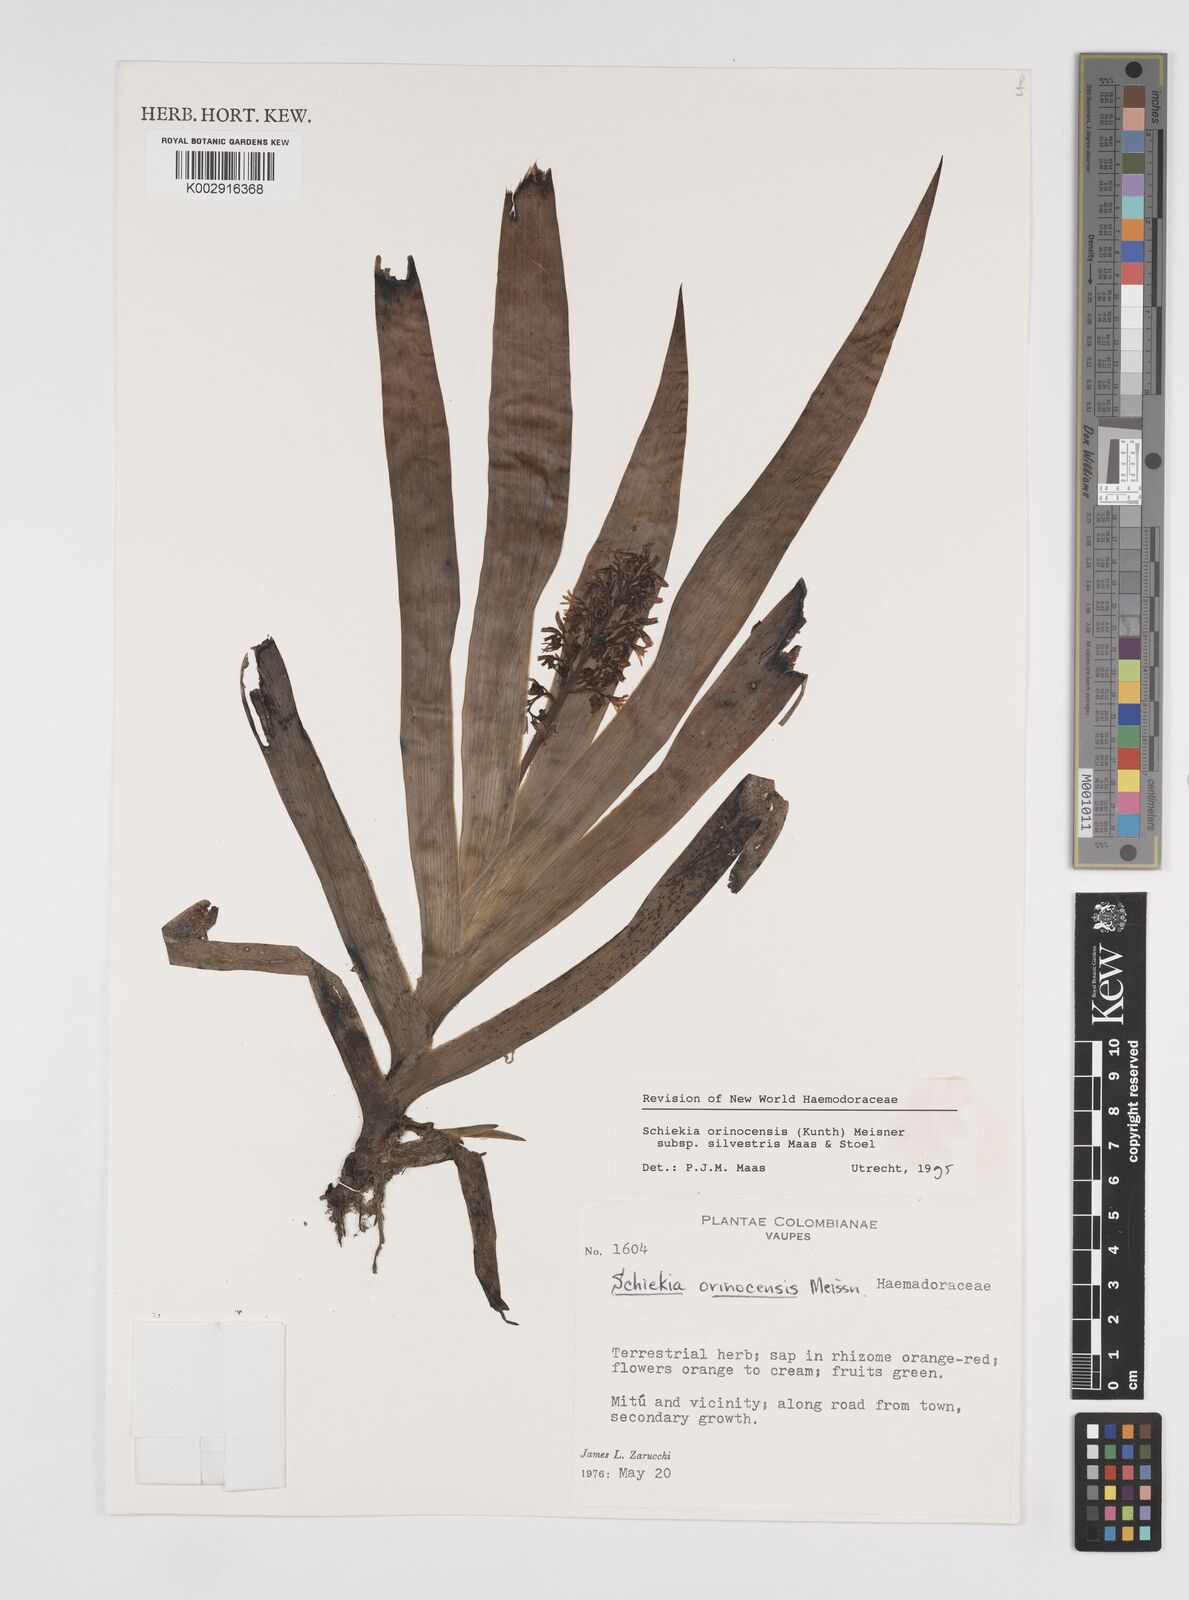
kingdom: Plantae
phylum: Tracheophyta
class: Liliopsida
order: Commelinales
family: Haemodoraceae
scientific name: Haemodoraceae
